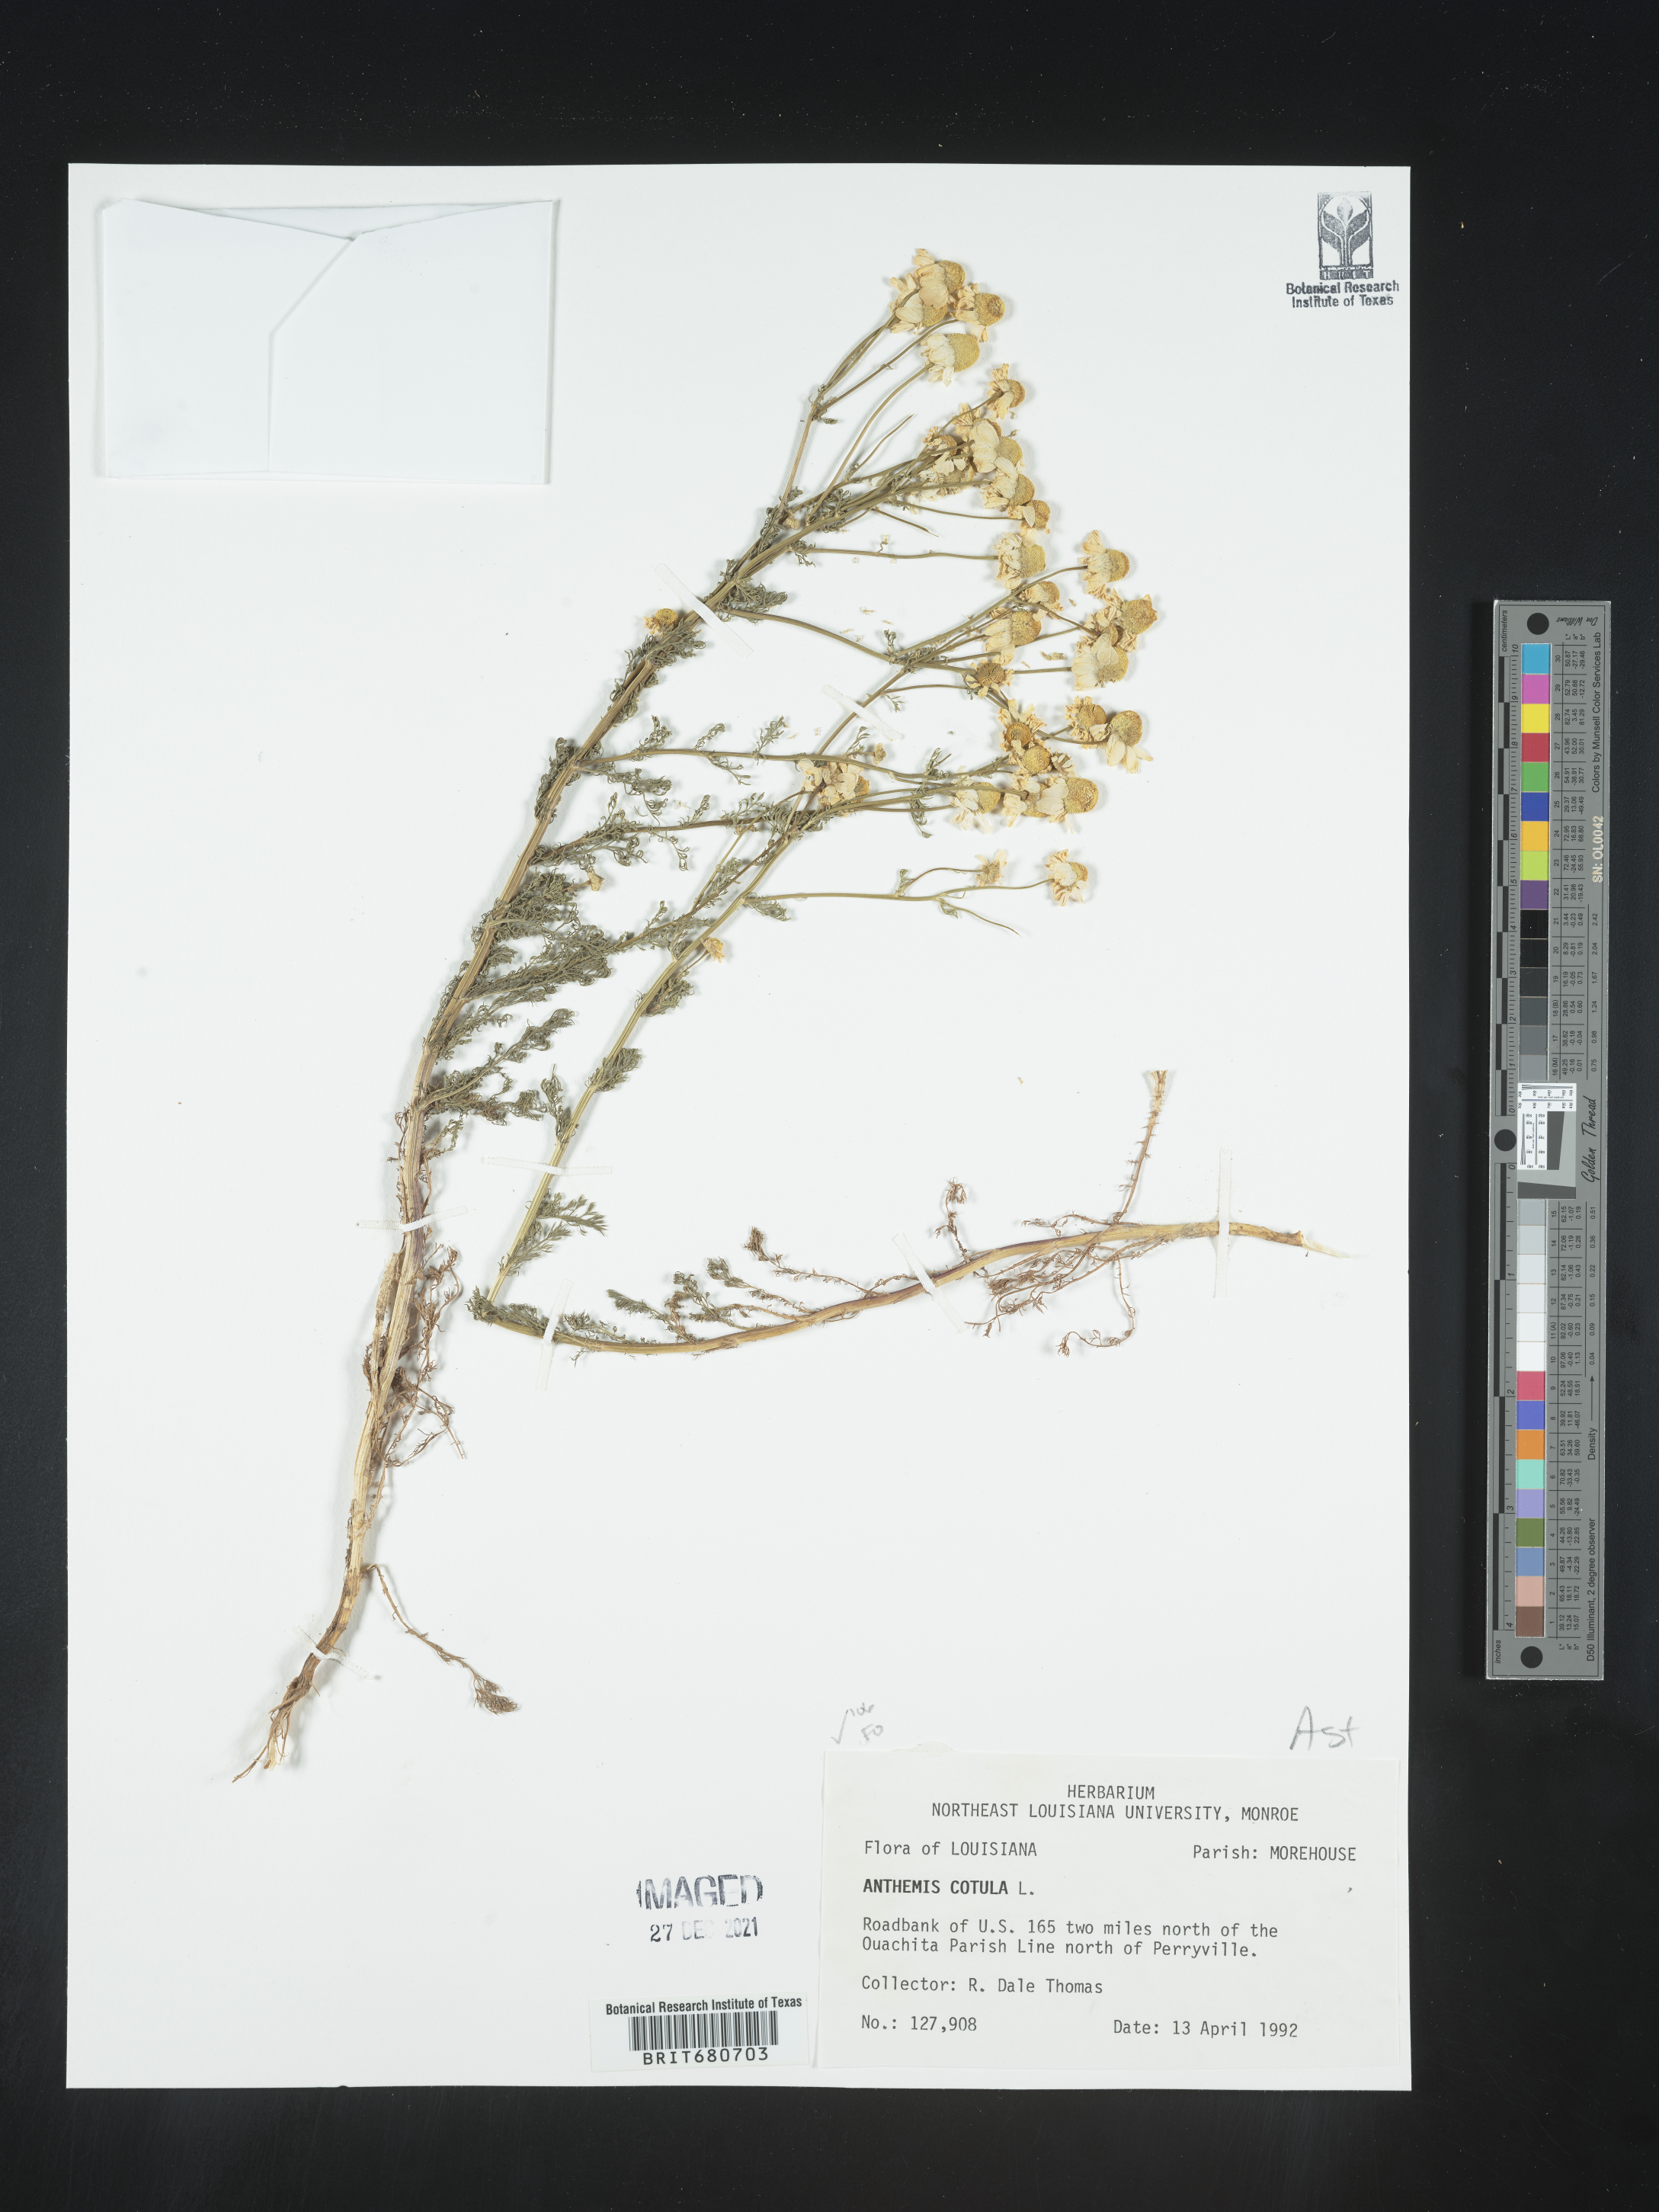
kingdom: Plantae
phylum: Tracheophyta
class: Magnoliopsida
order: Asterales
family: Asteraceae
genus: Anthemis
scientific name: Anthemis cotula
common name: Stinking chamomile
